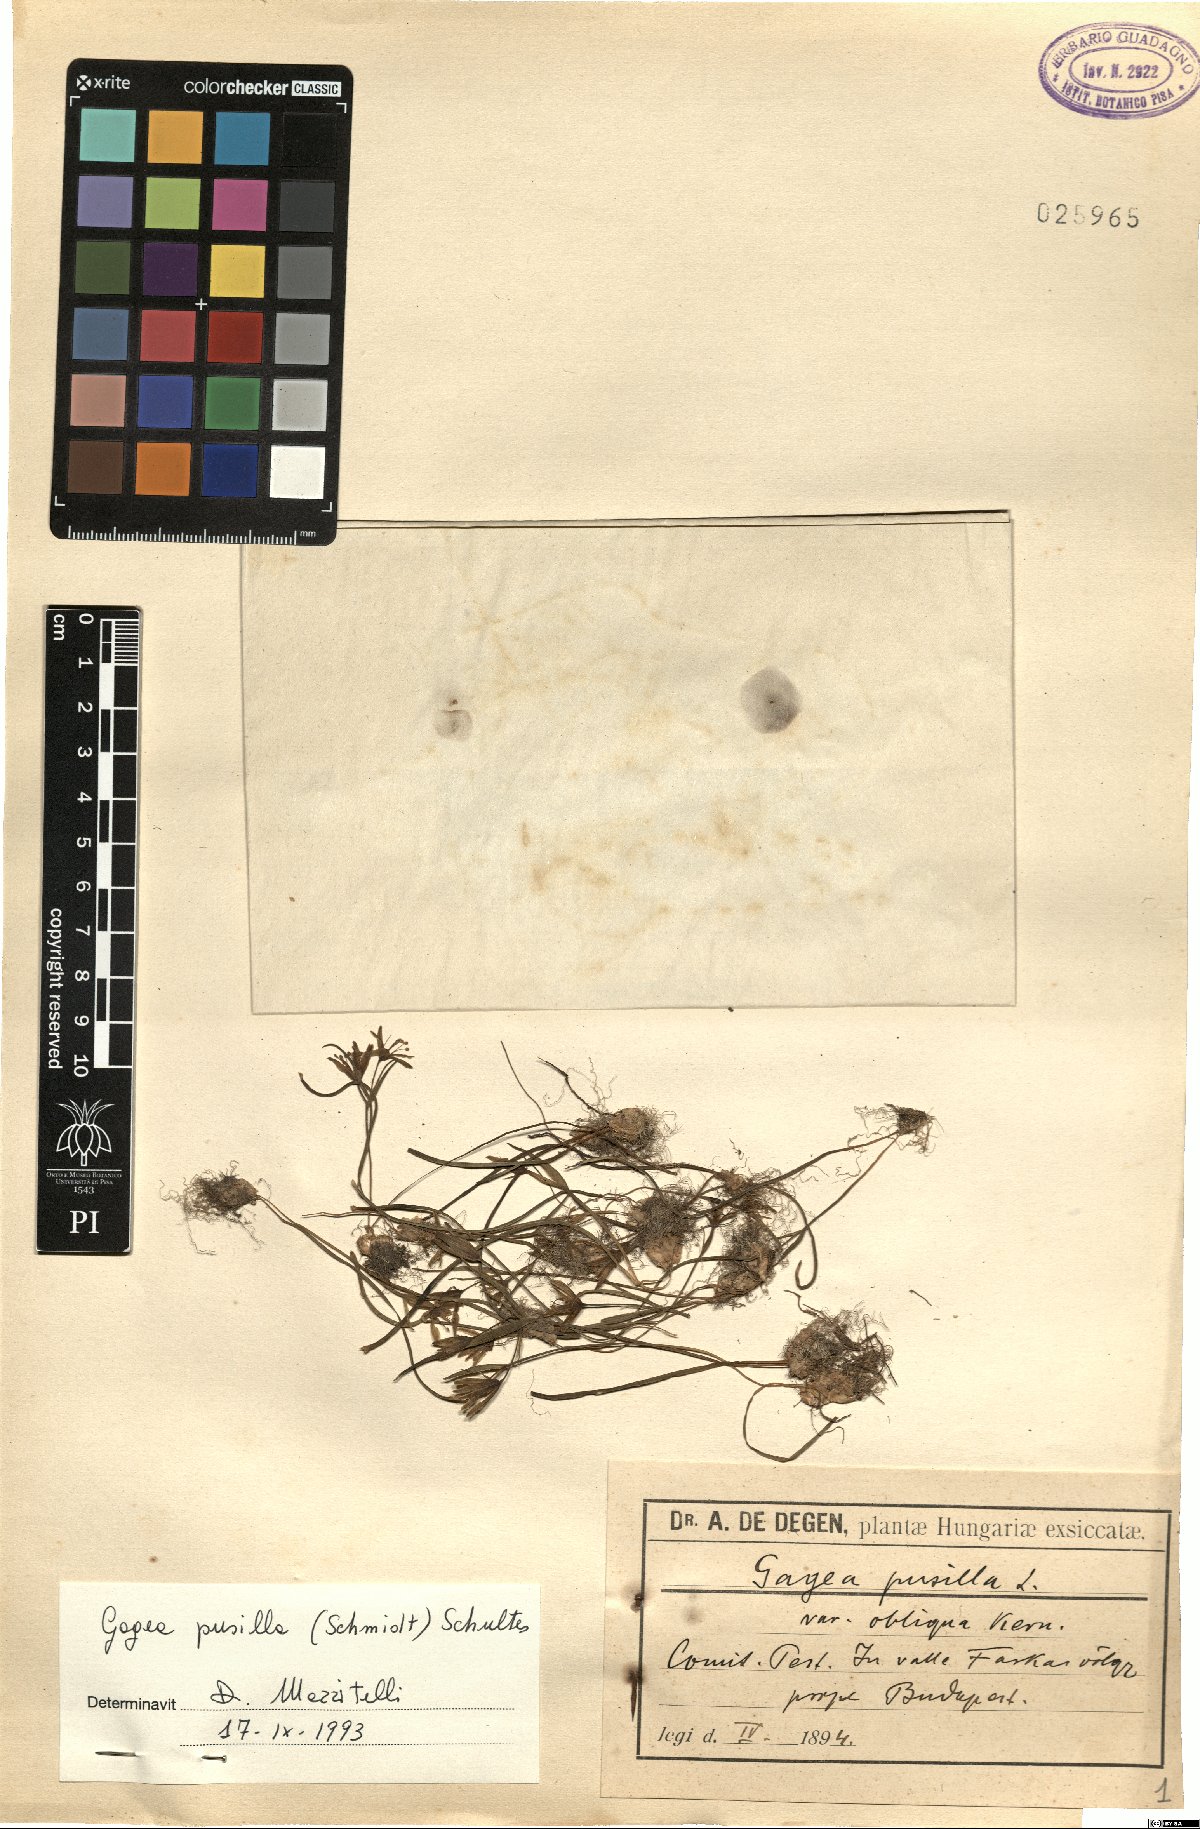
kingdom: Plantae
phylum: Tracheophyta
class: Liliopsida
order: Liliales
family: Liliaceae
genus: Gagea
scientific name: Gagea pusilla
